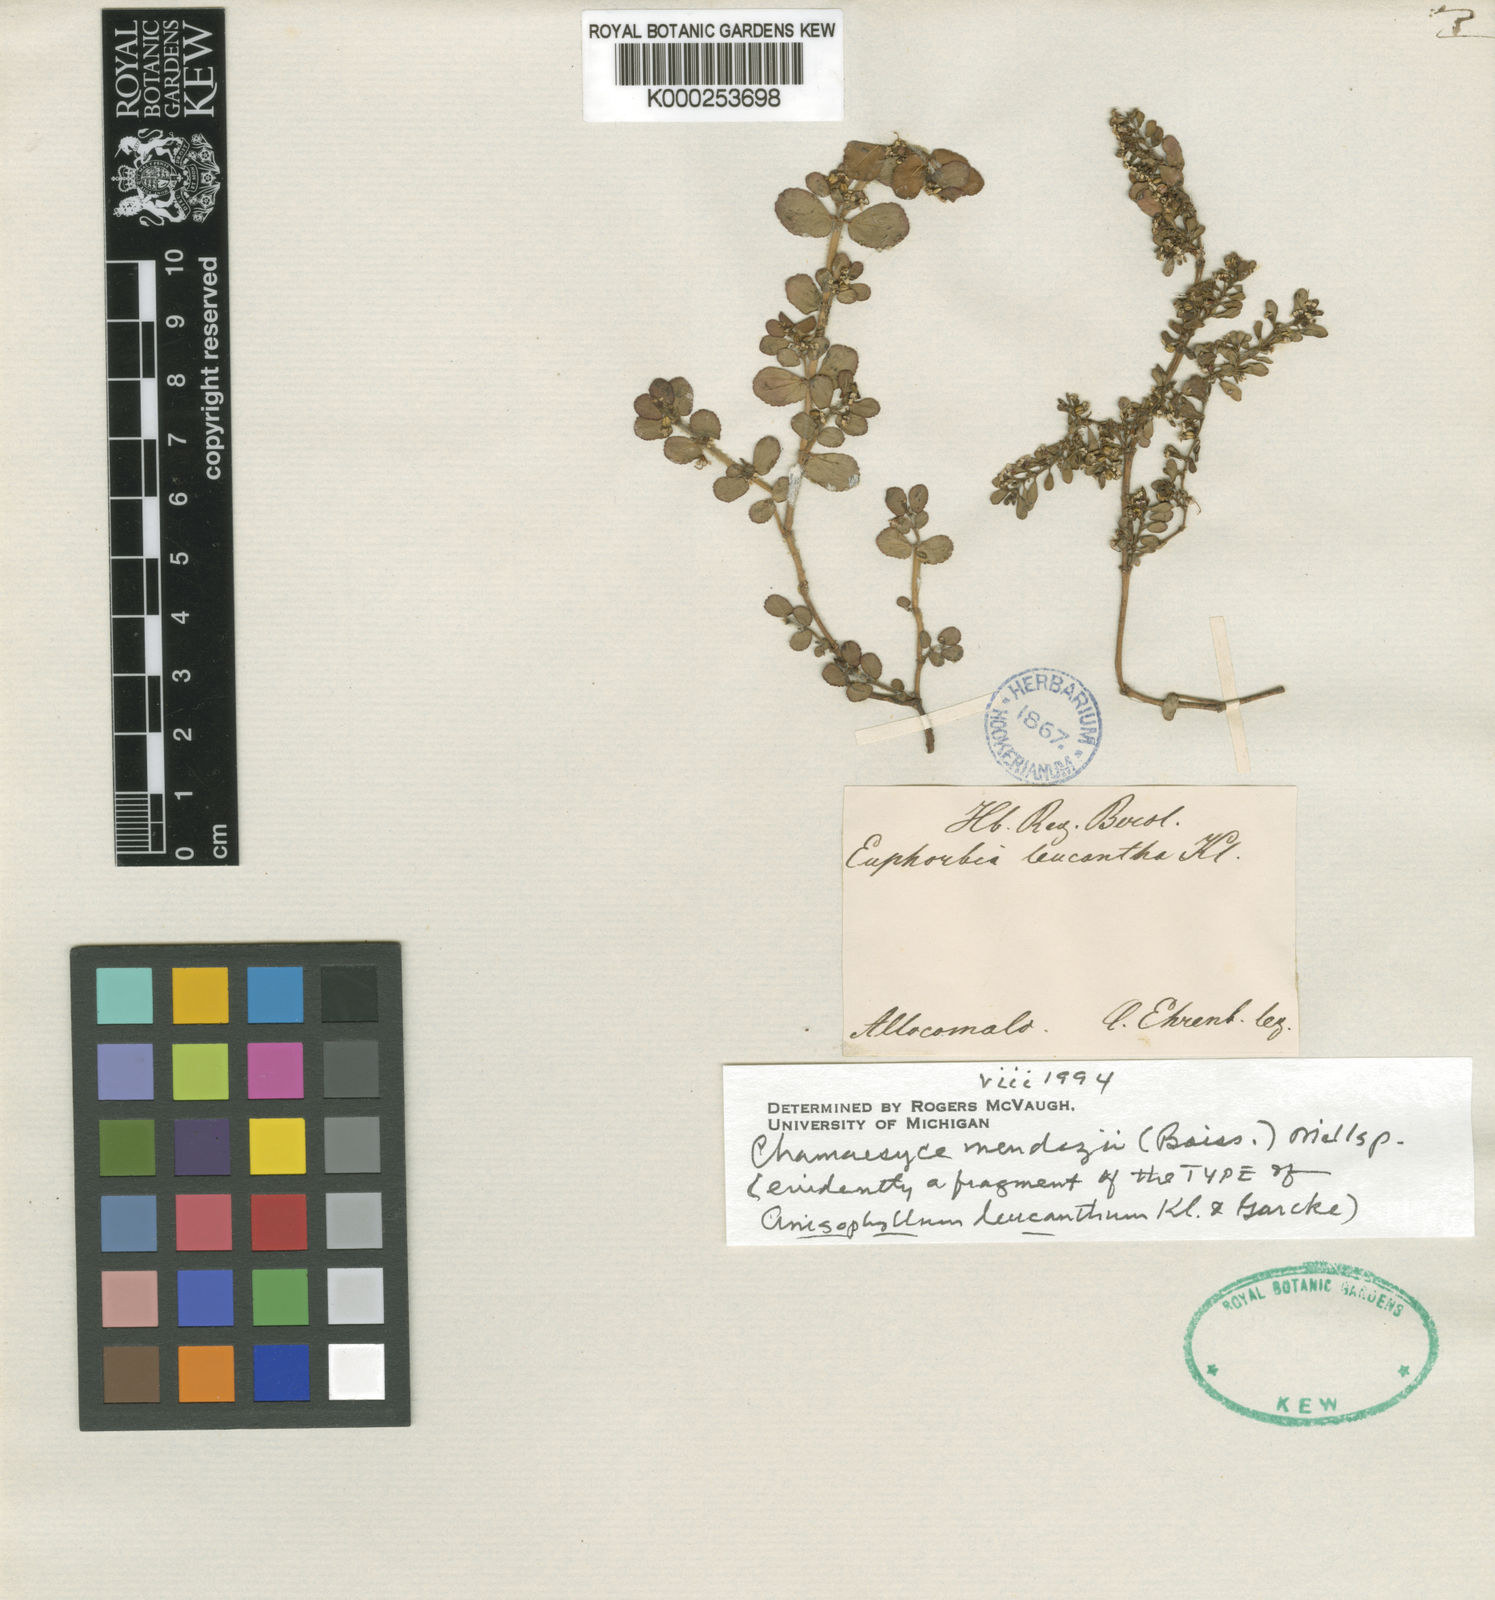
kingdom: Plantae
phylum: Tracheophyta
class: Magnoliopsida
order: Malpighiales
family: Euphorbiaceae
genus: Euphorbia
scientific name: Euphorbia mendezii
